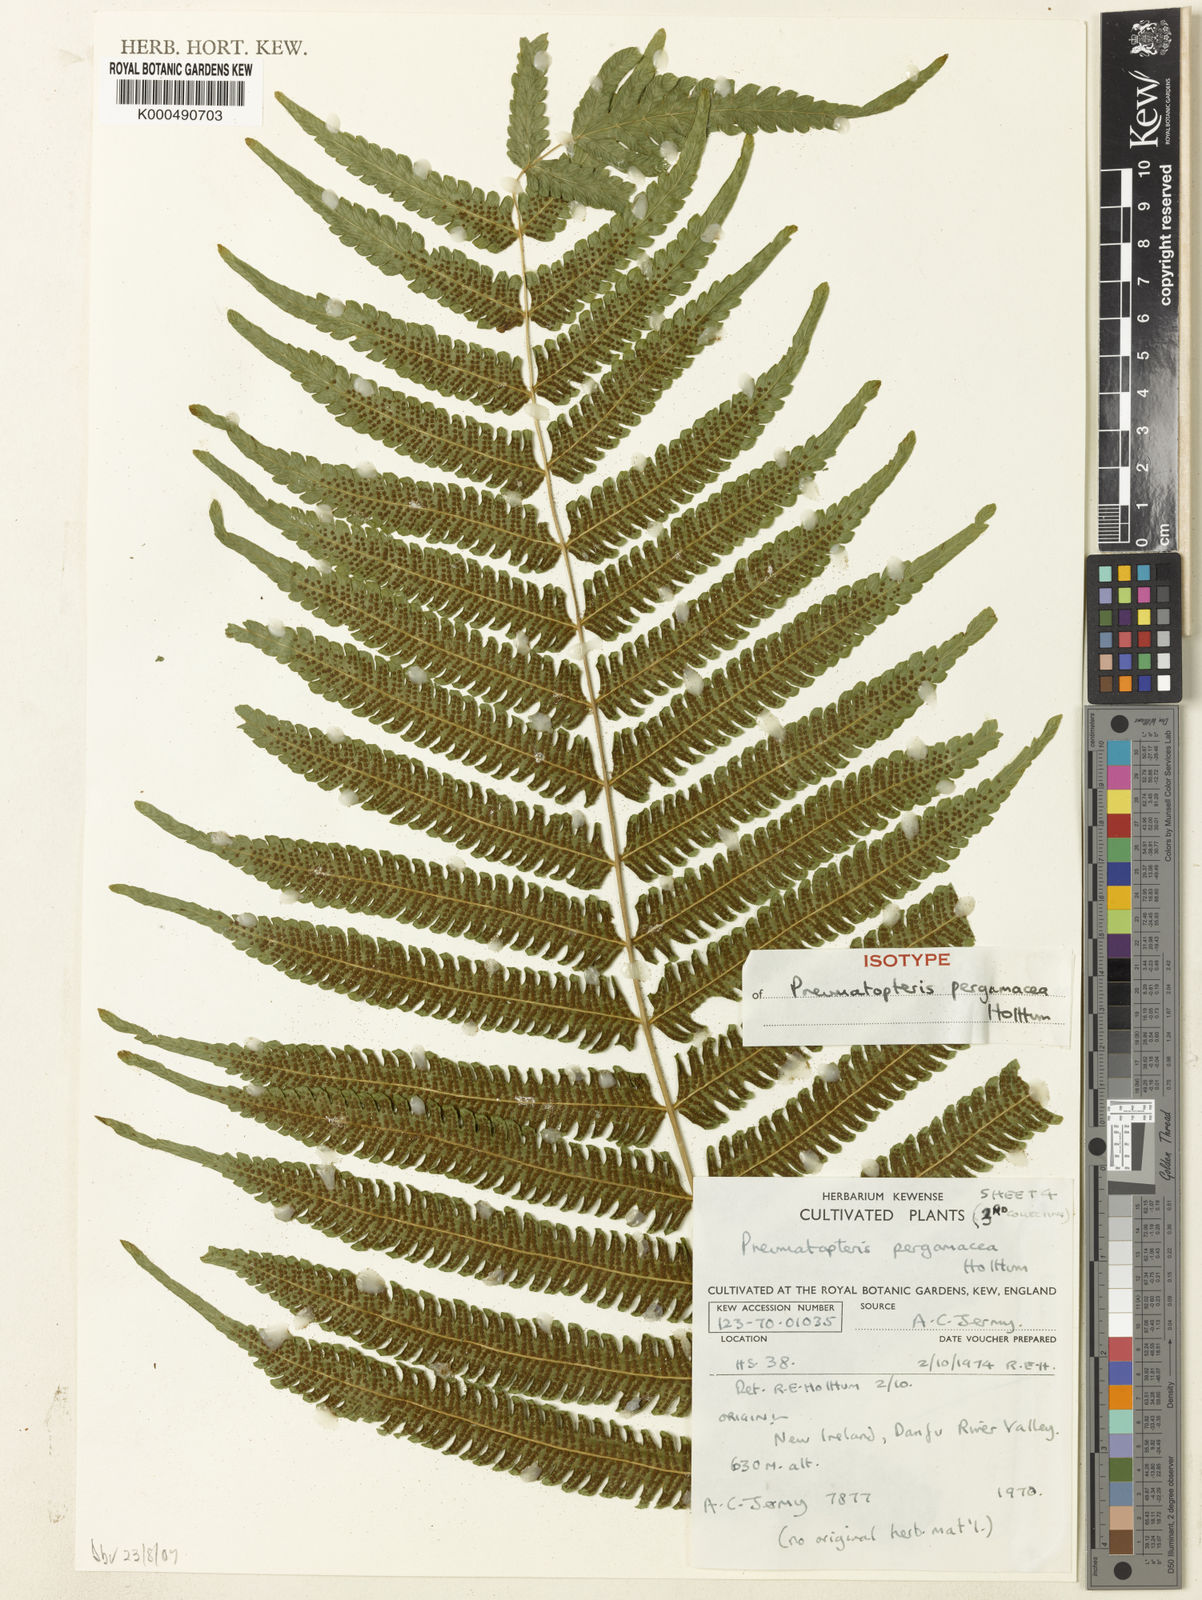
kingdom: Plantae
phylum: Tracheophyta
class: Polypodiopsida
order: Polypodiales
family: Thelypteridaceae
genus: Reholttumia
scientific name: Reholttumia pergamacea
